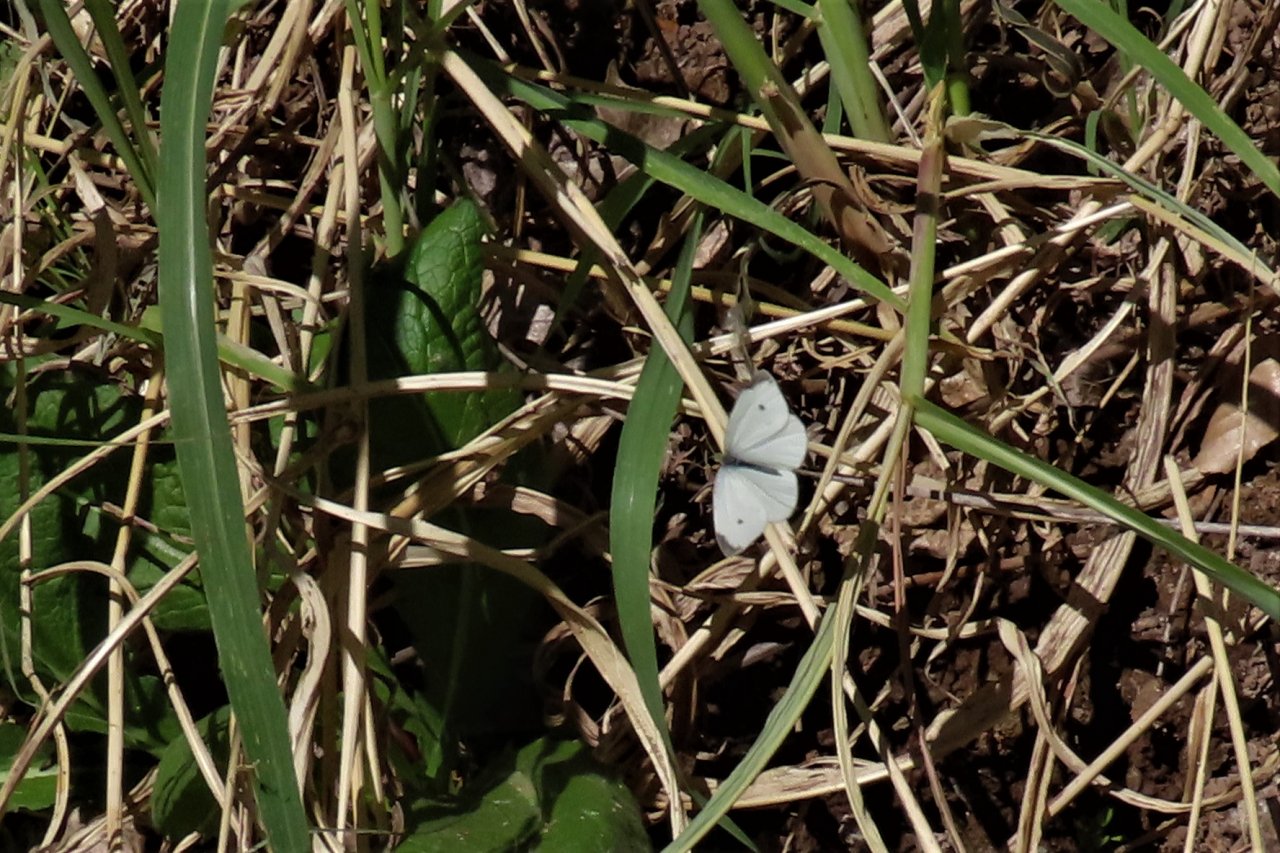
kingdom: Animalia
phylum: Arthropoda
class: Insecta
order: Lepidoptera
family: Pieridae
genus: Pieris
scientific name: Pieris rapae
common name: Cabbage White
